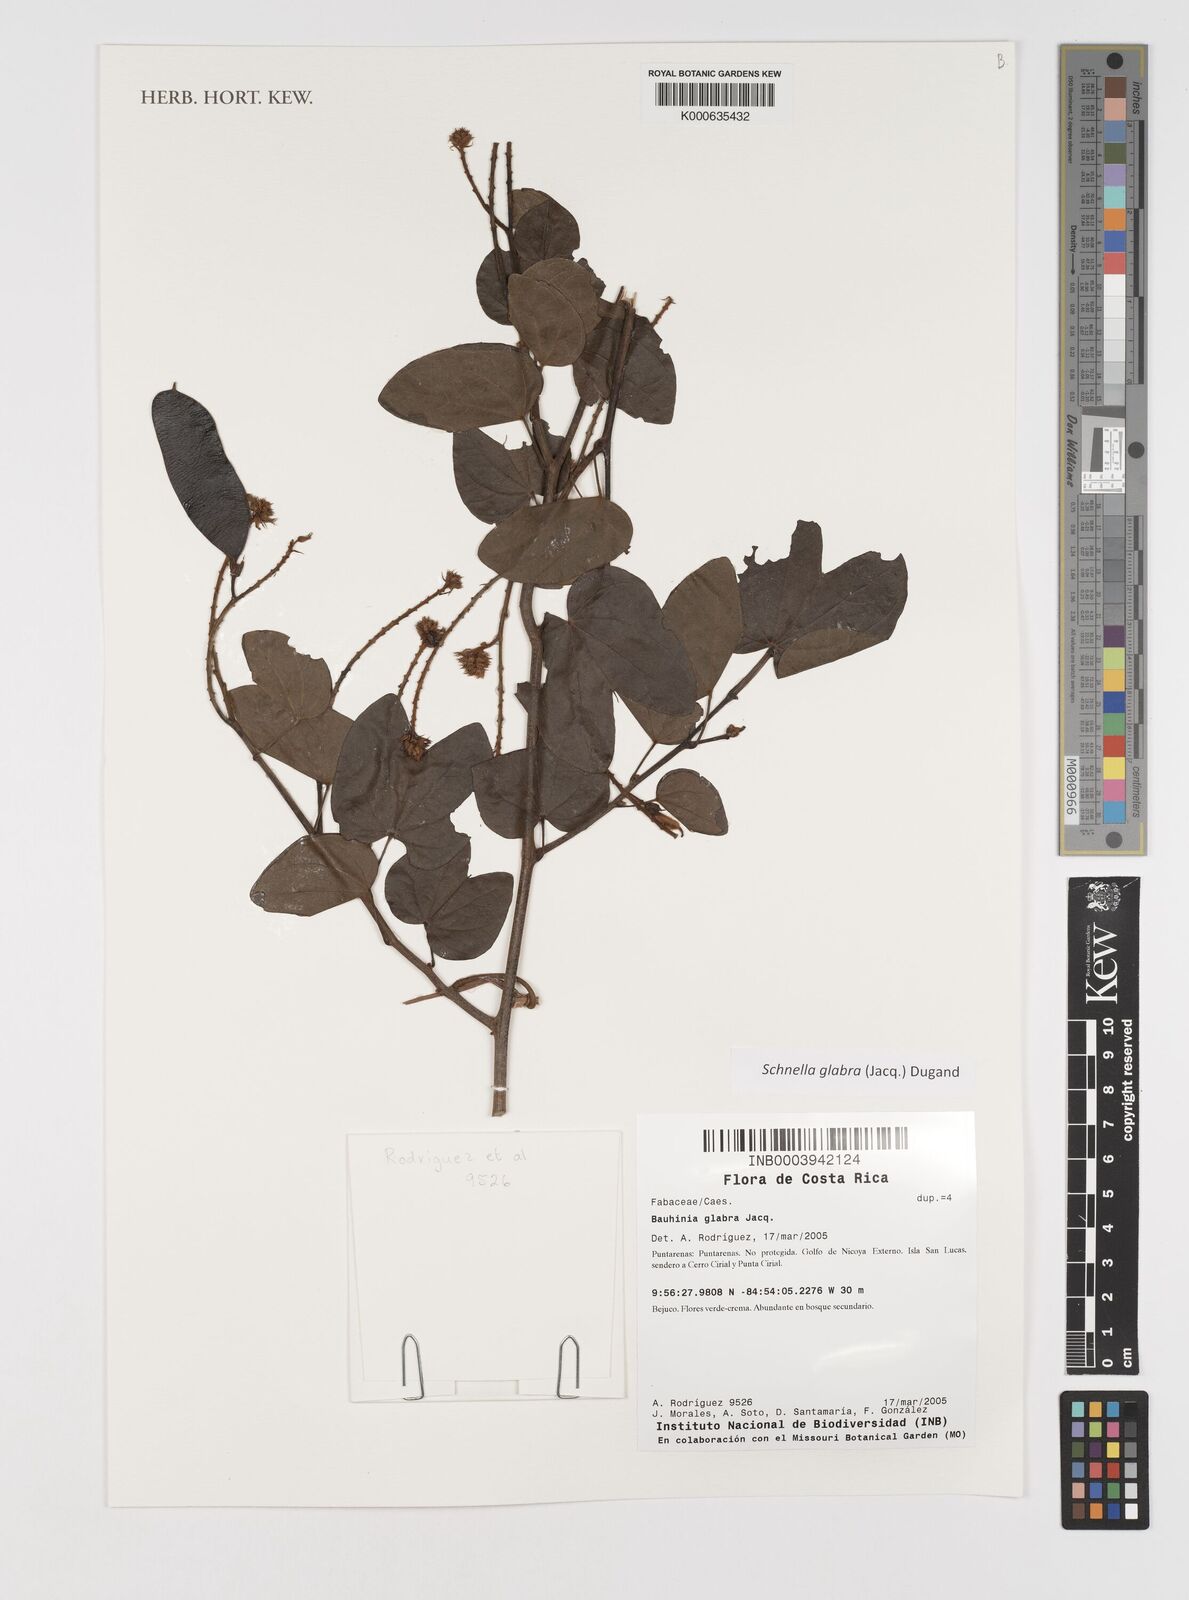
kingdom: Plantae
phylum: Tracheophyta
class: Magnoliopsida
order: Fabales
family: Fabaceae
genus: Schnella
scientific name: Schnella glabra
